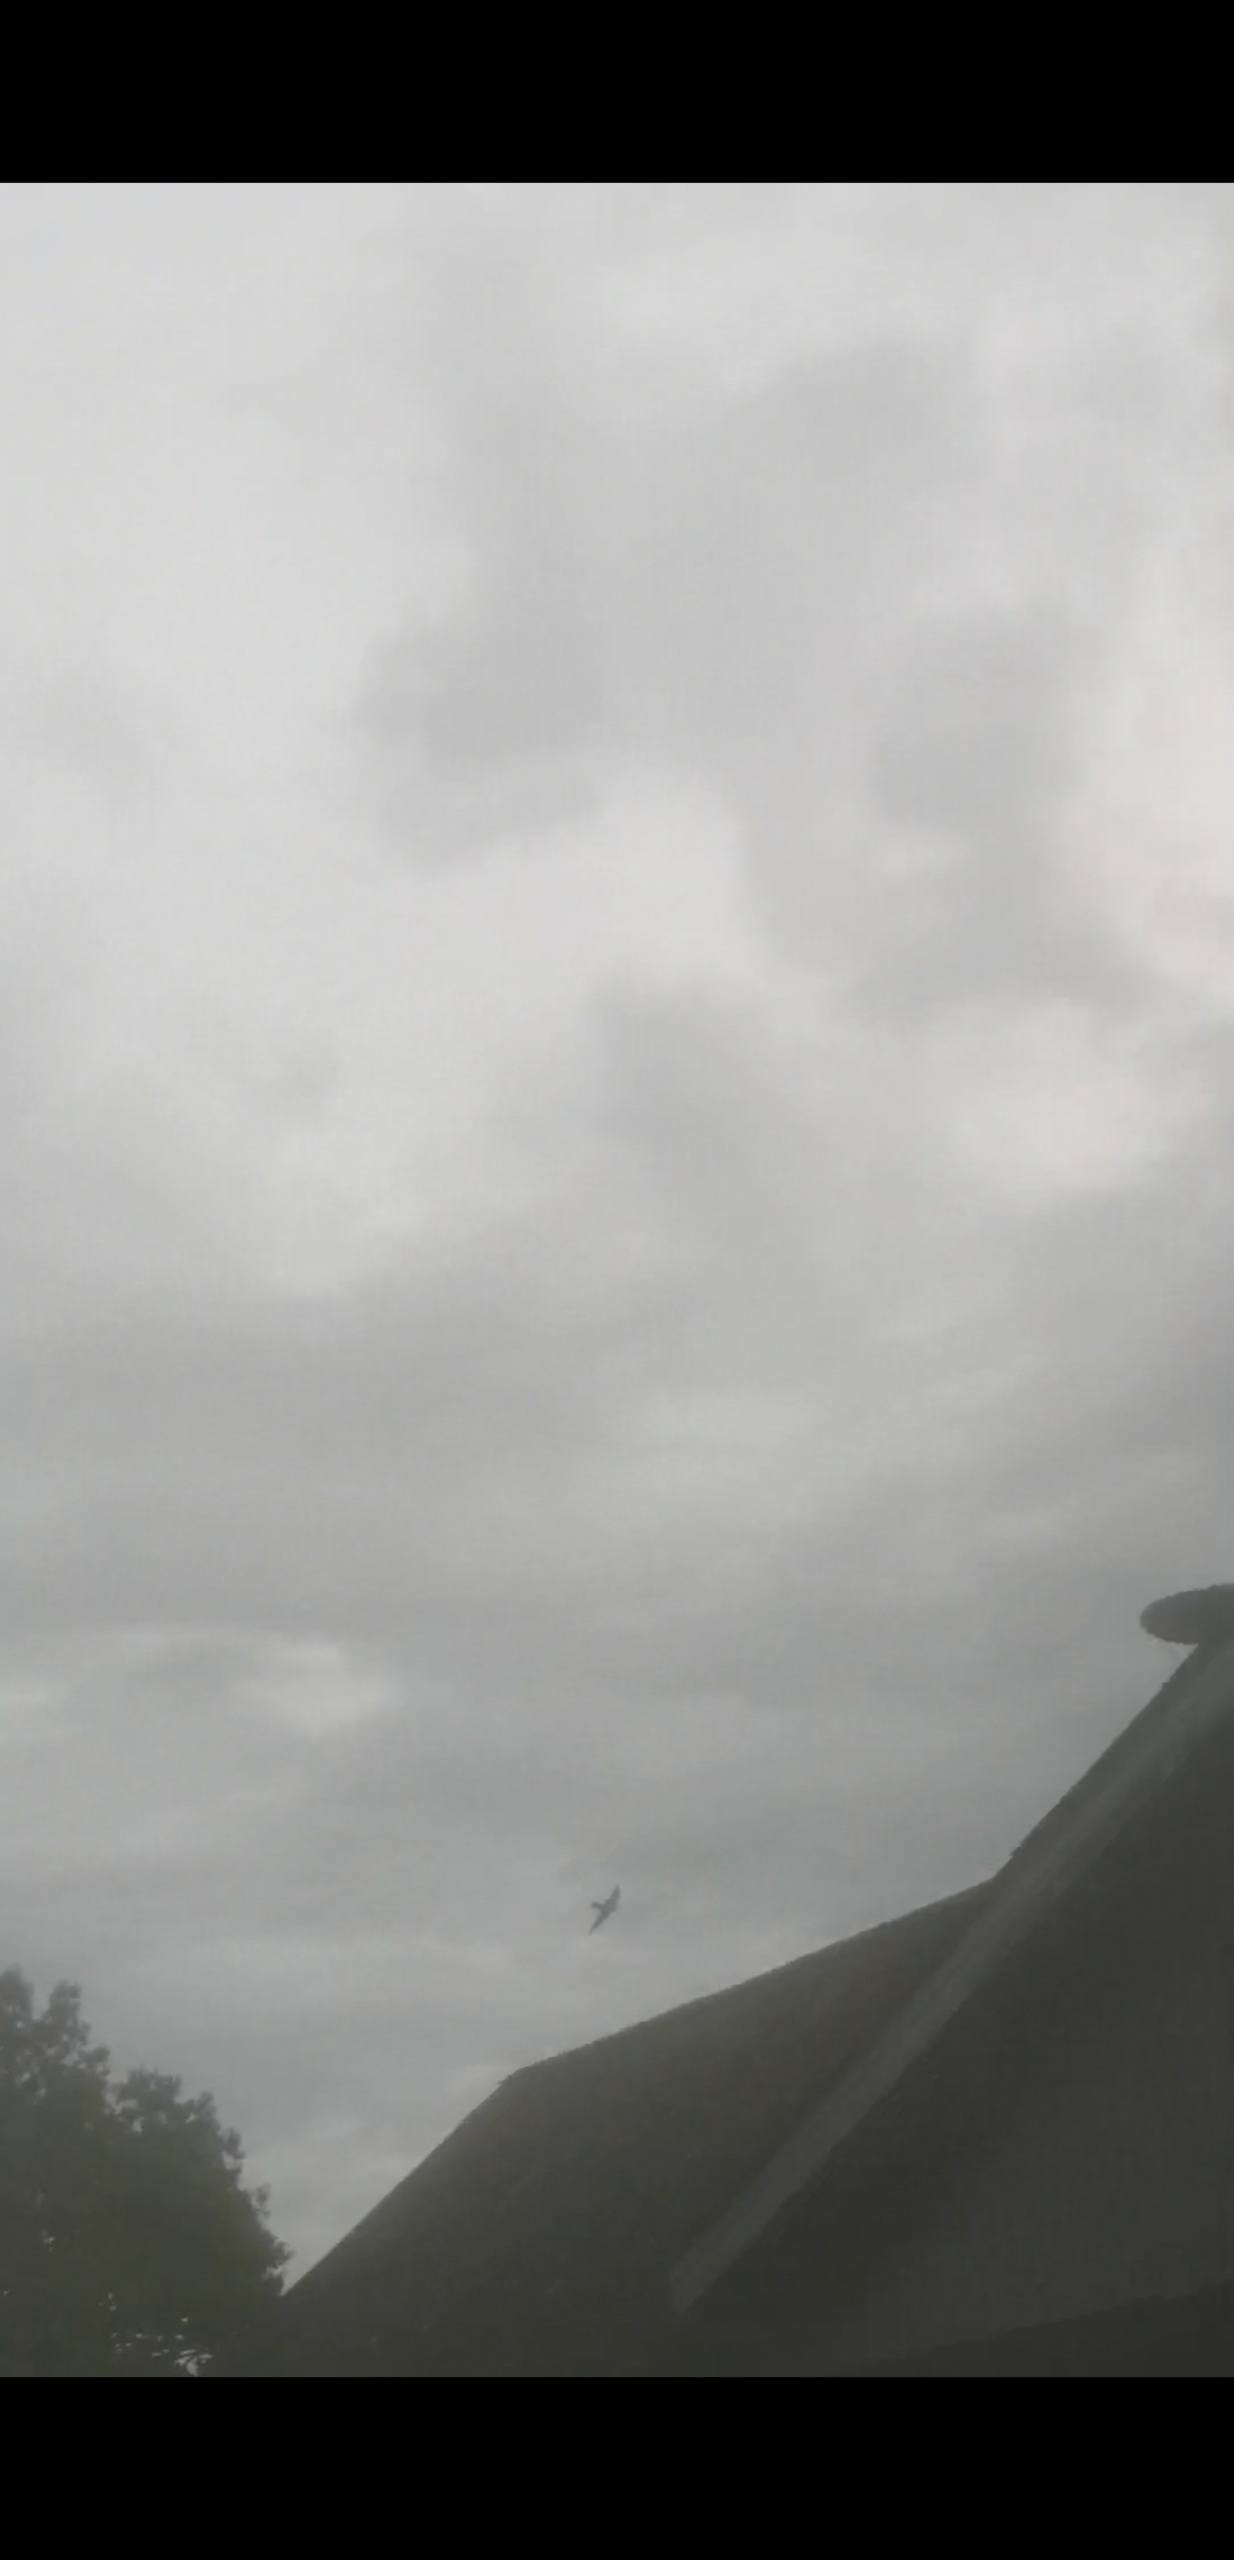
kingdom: Animalia
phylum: Chordata
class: Aves
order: Passeriformes
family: Hirundinidae
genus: Hirundo
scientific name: Hirundo rustica
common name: Landsvale
